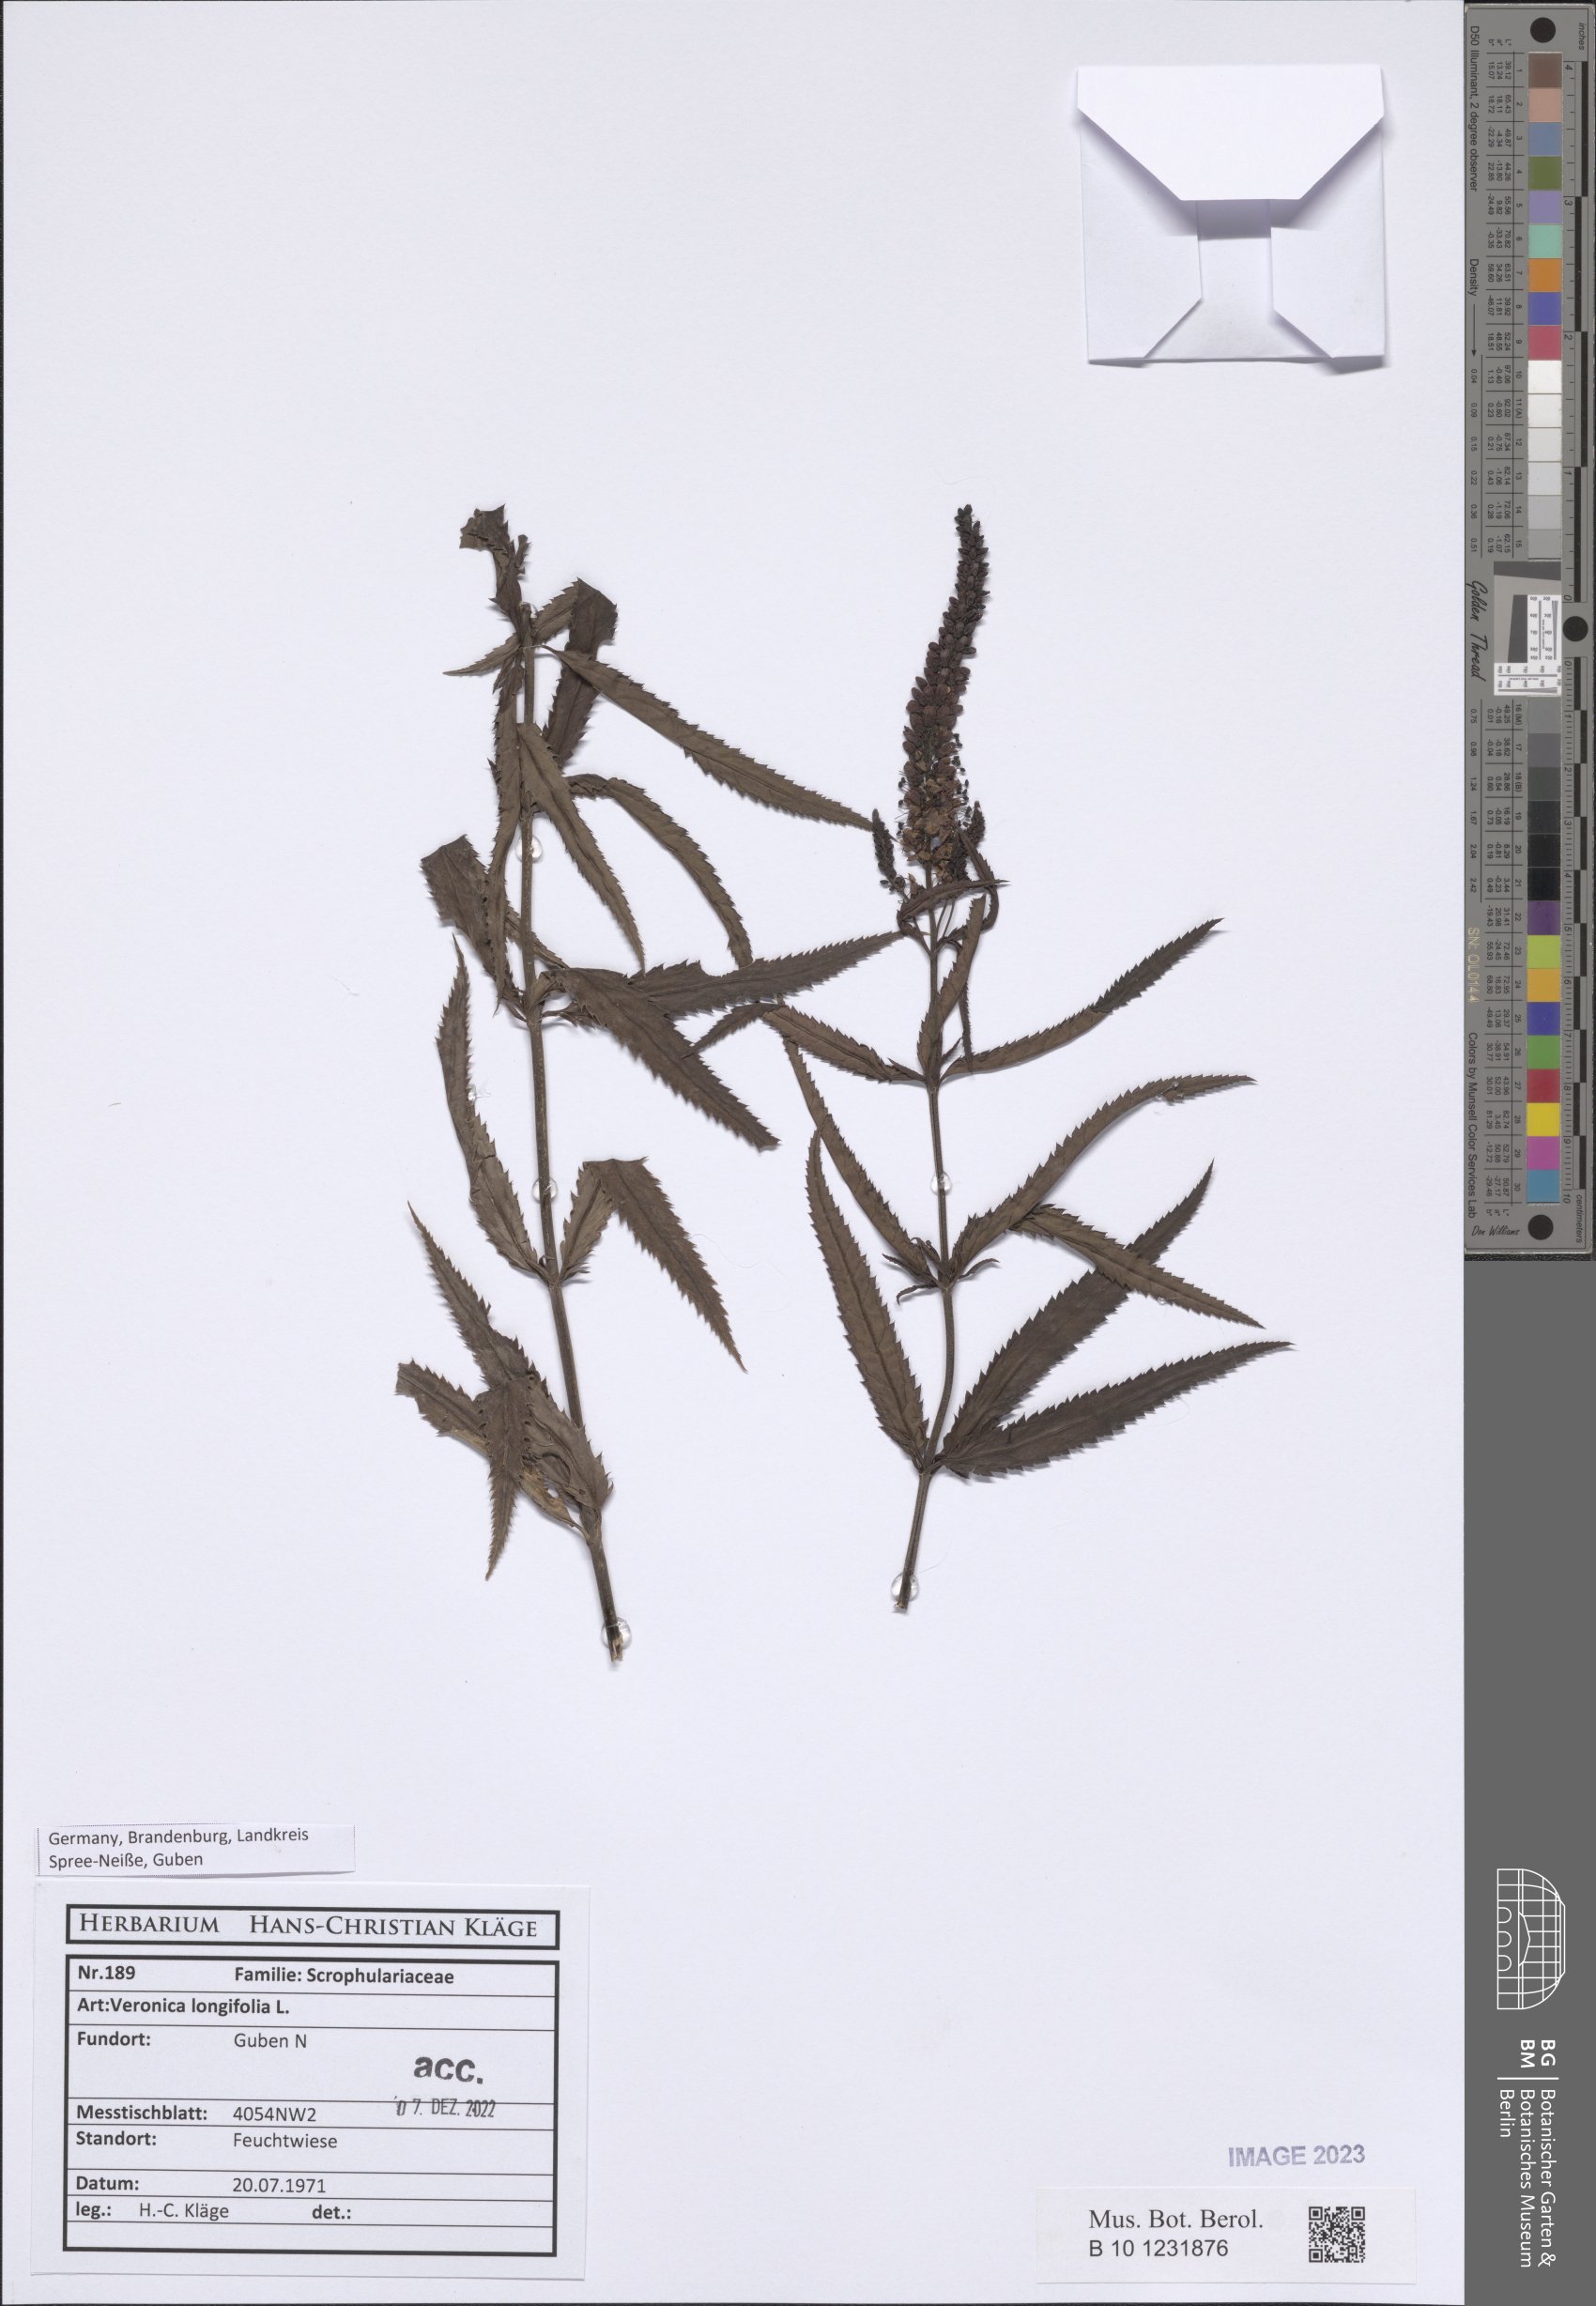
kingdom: Plantae
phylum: Tracheophyta
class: Magnoliopsida
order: Lamiales
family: Plantaginaceae
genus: Veronica
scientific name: Veronica longifolia
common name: Garden speedwell
